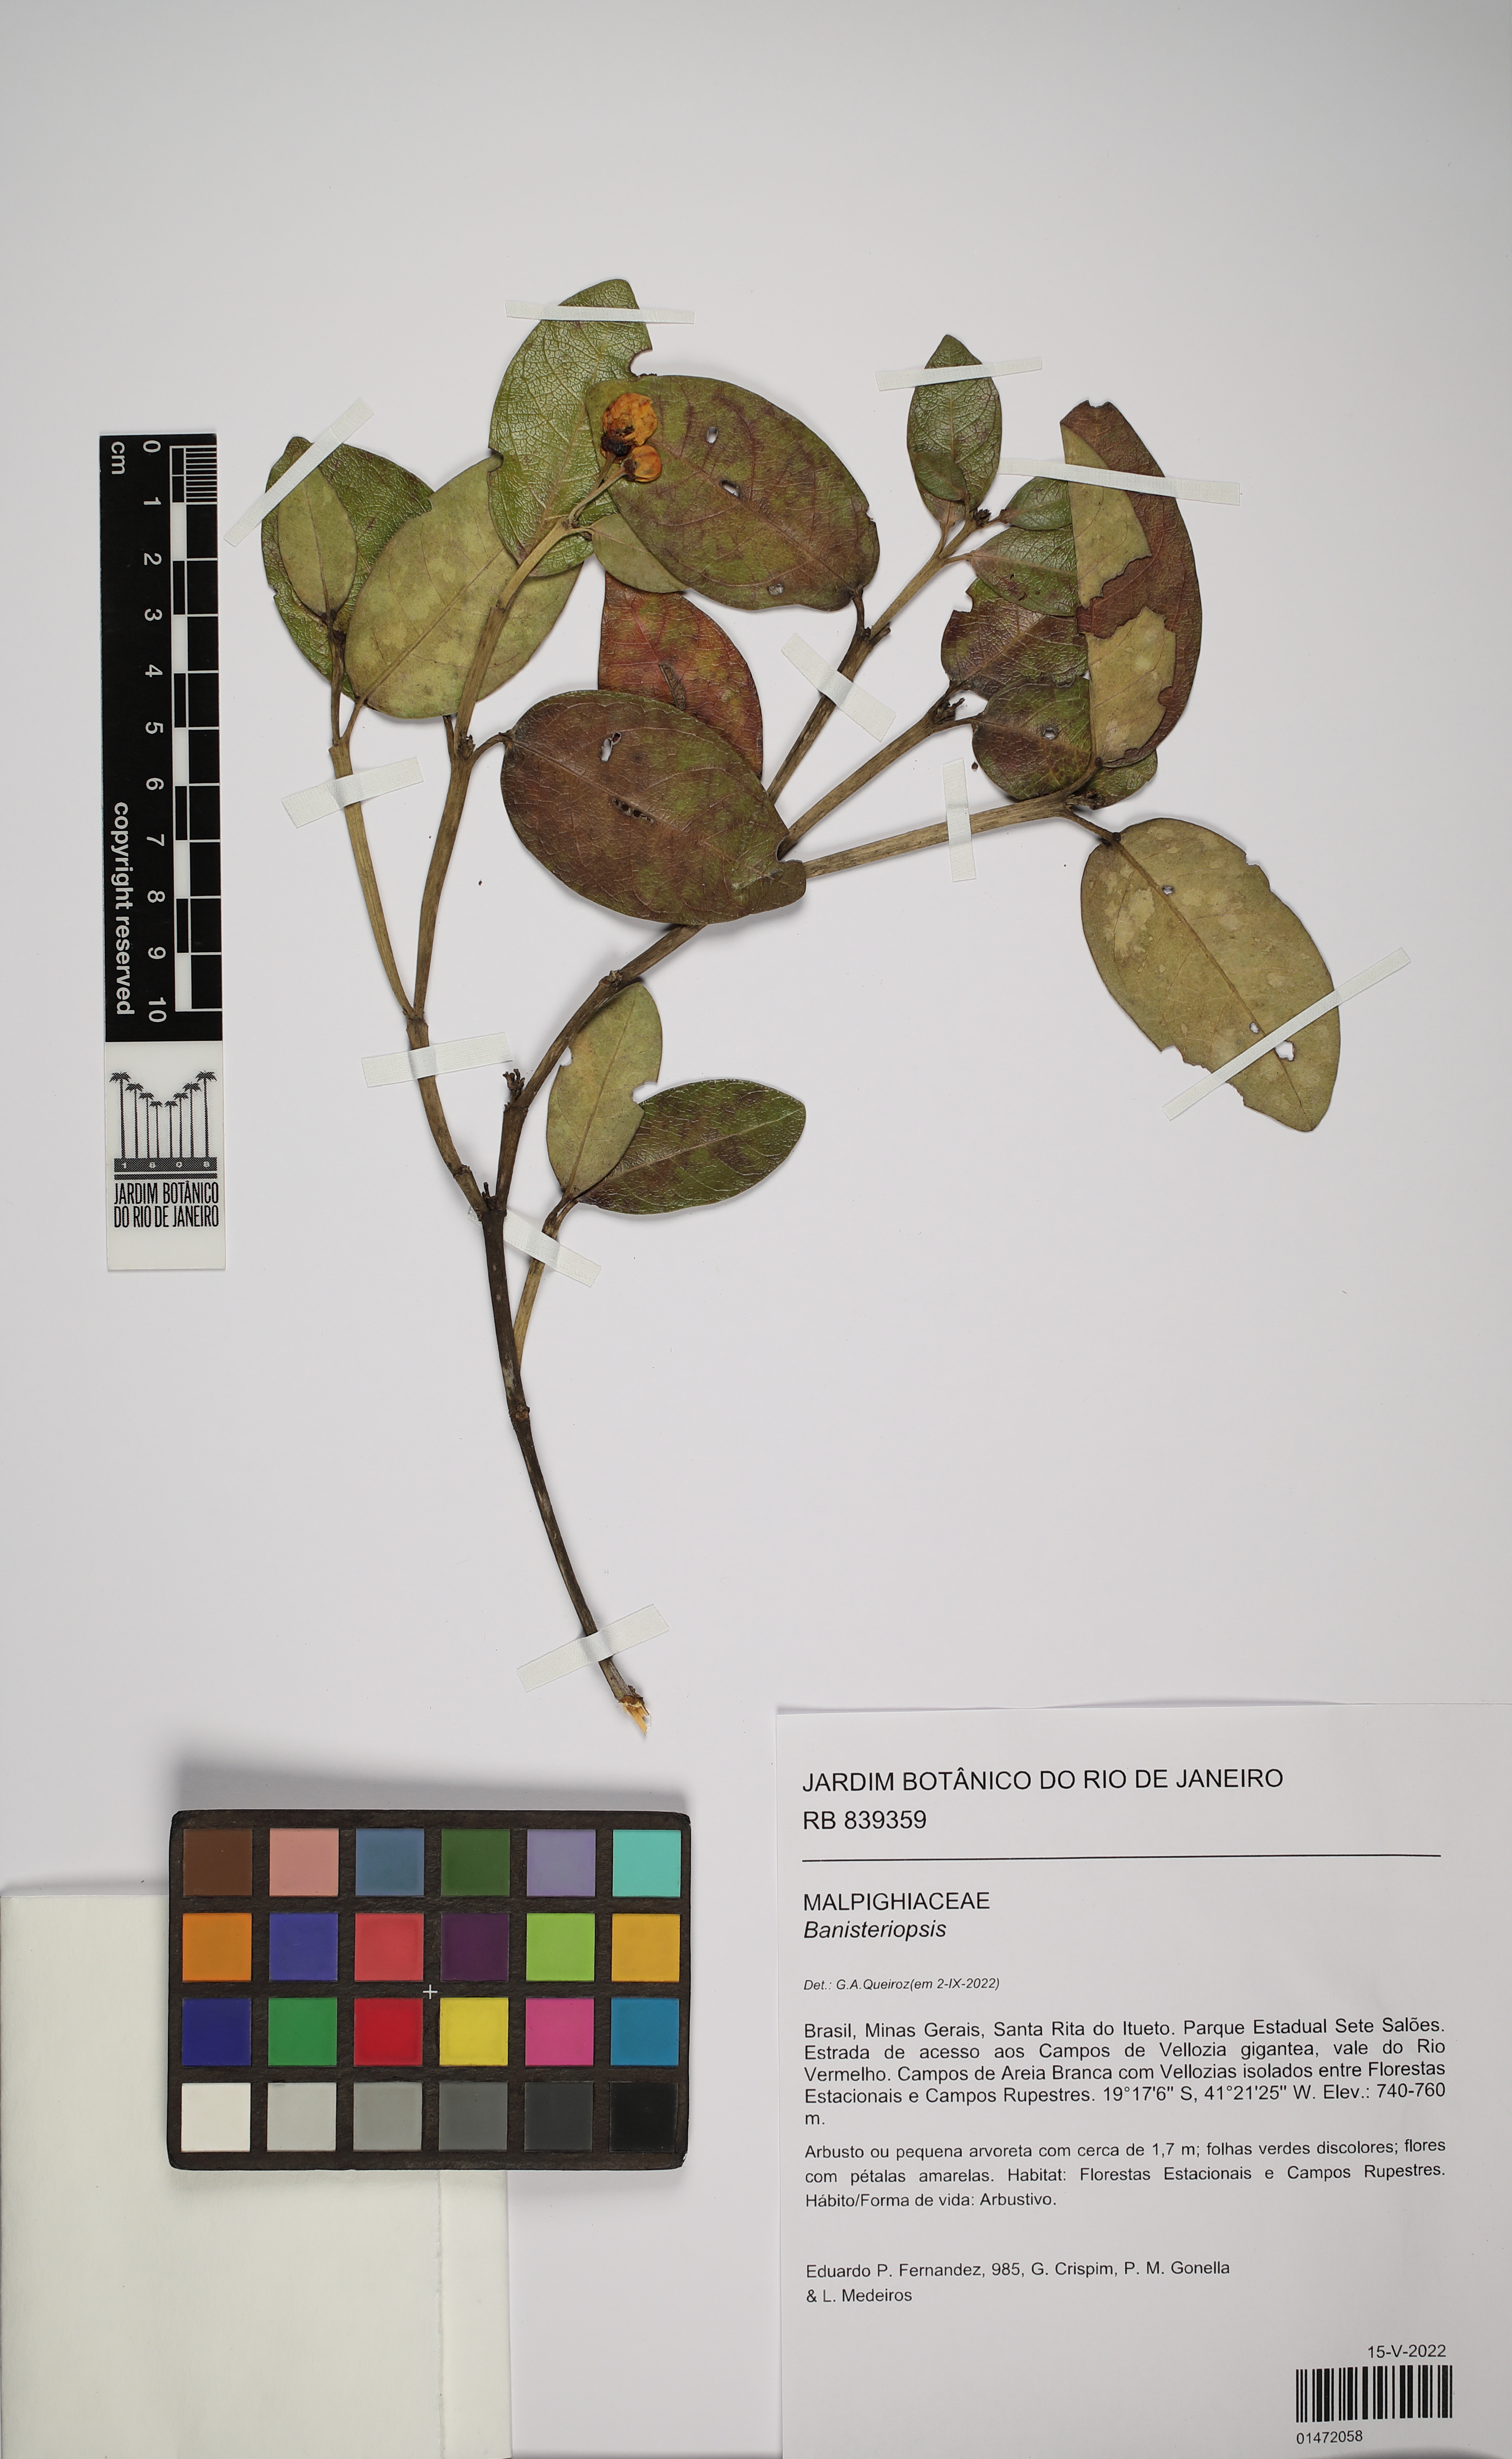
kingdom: Plantae
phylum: Tracheophyta
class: Magnoliopsida
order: Malpighiales
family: Malpighiaceae
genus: Banisteriopsis
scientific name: Banisteriopsis
